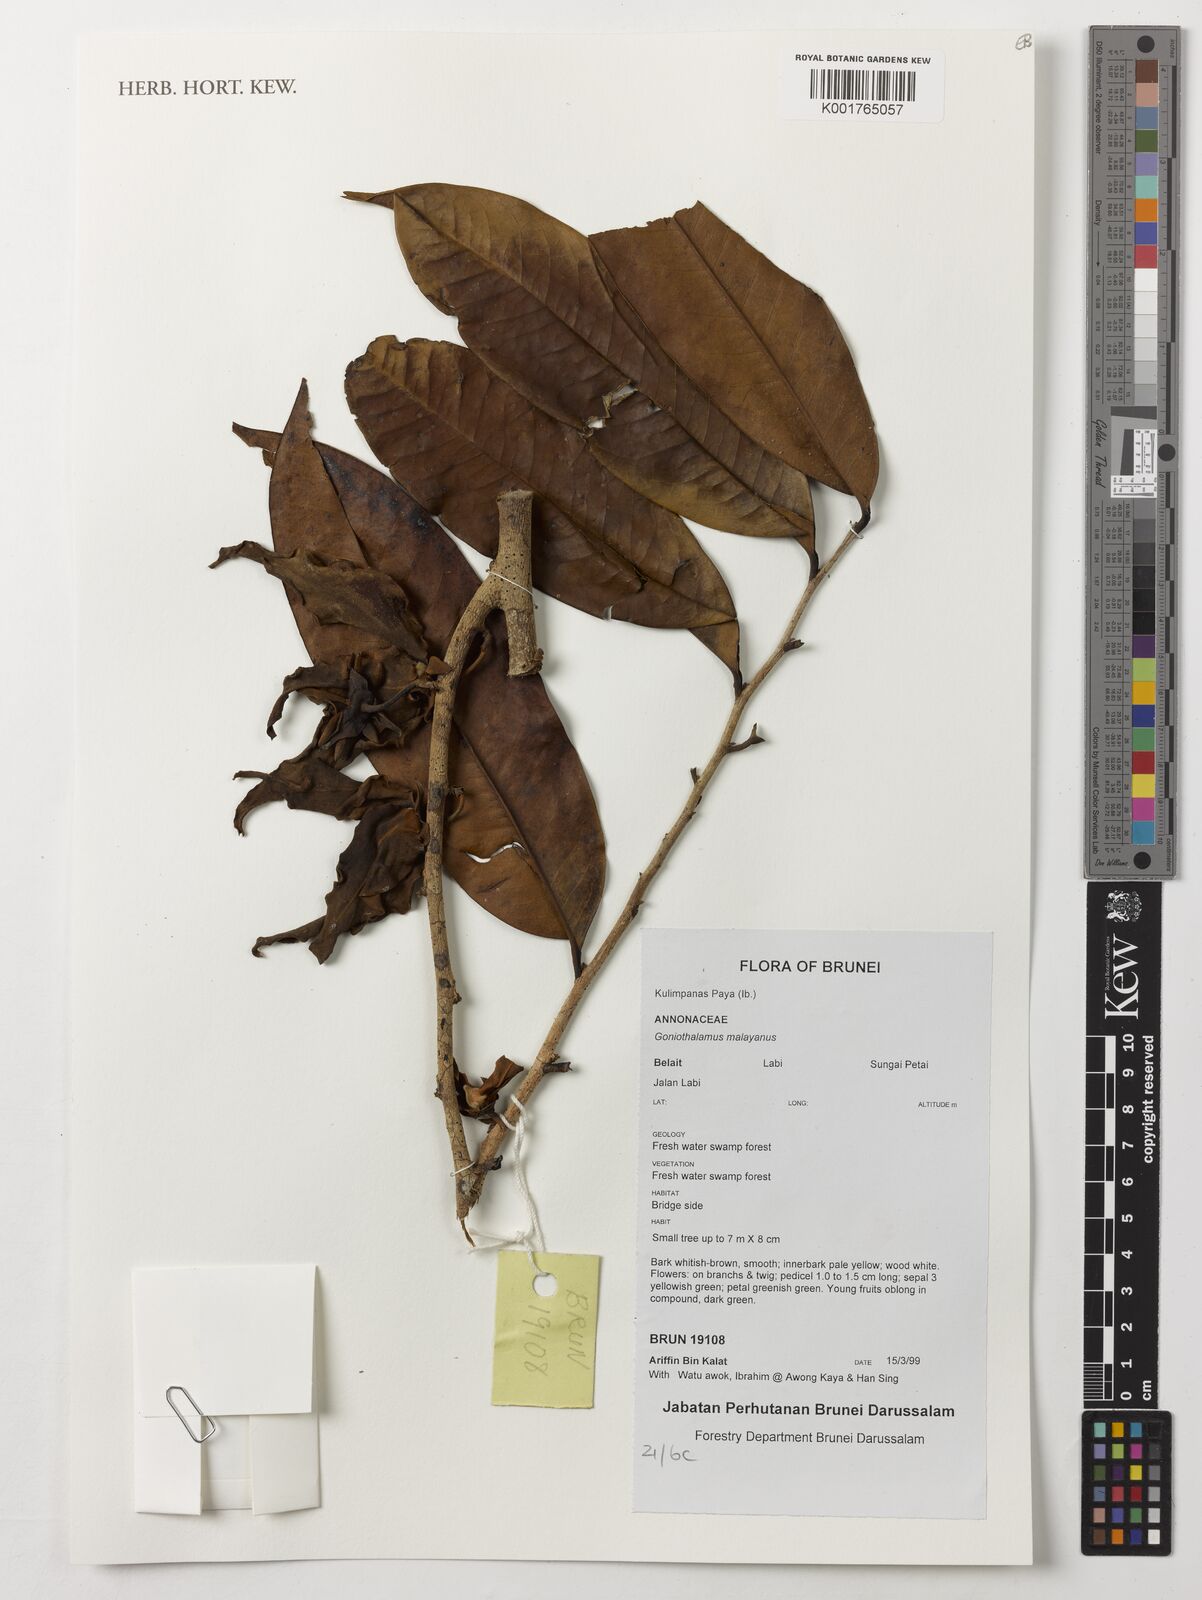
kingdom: Plantae
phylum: Tracheophyta
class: Magnoliopsida
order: Magnoliales
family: Annonaceae
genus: Goniothalamus
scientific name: Goniothalamus malayanus
